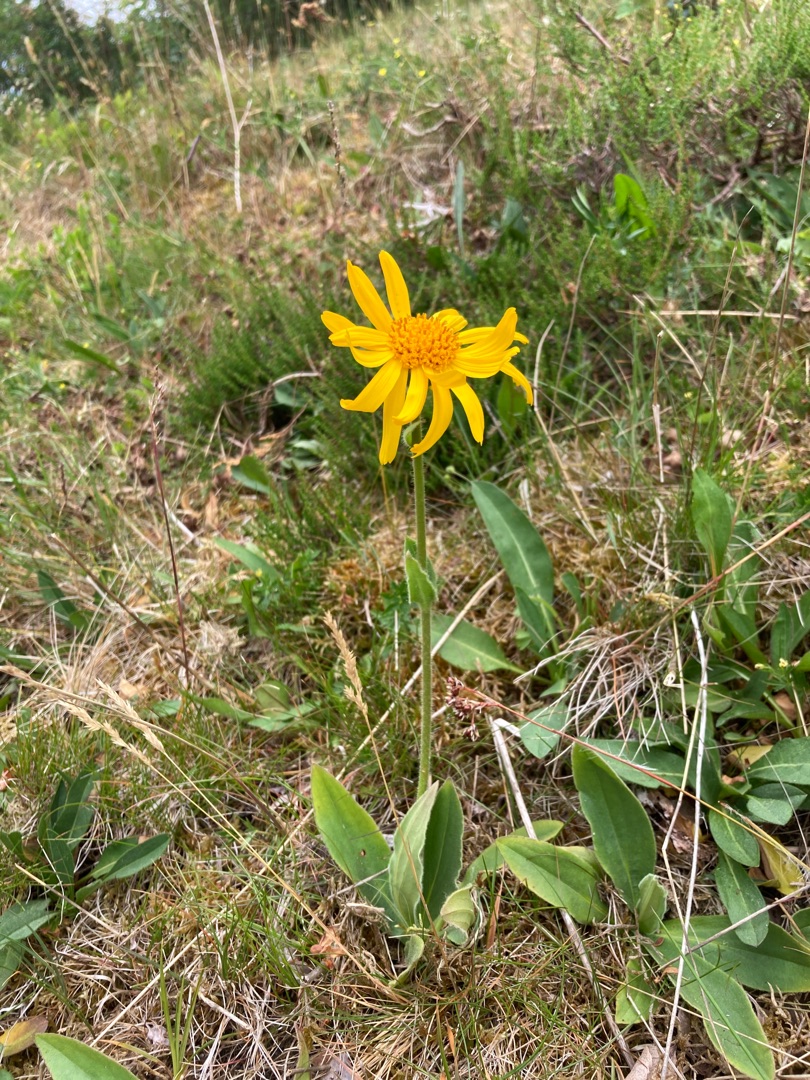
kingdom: Plantae
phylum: Tracheophyta
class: Magnoliopsida
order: Asterales
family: Asteraceae
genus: Arnica
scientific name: Arnica montana
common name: Guldblomme
